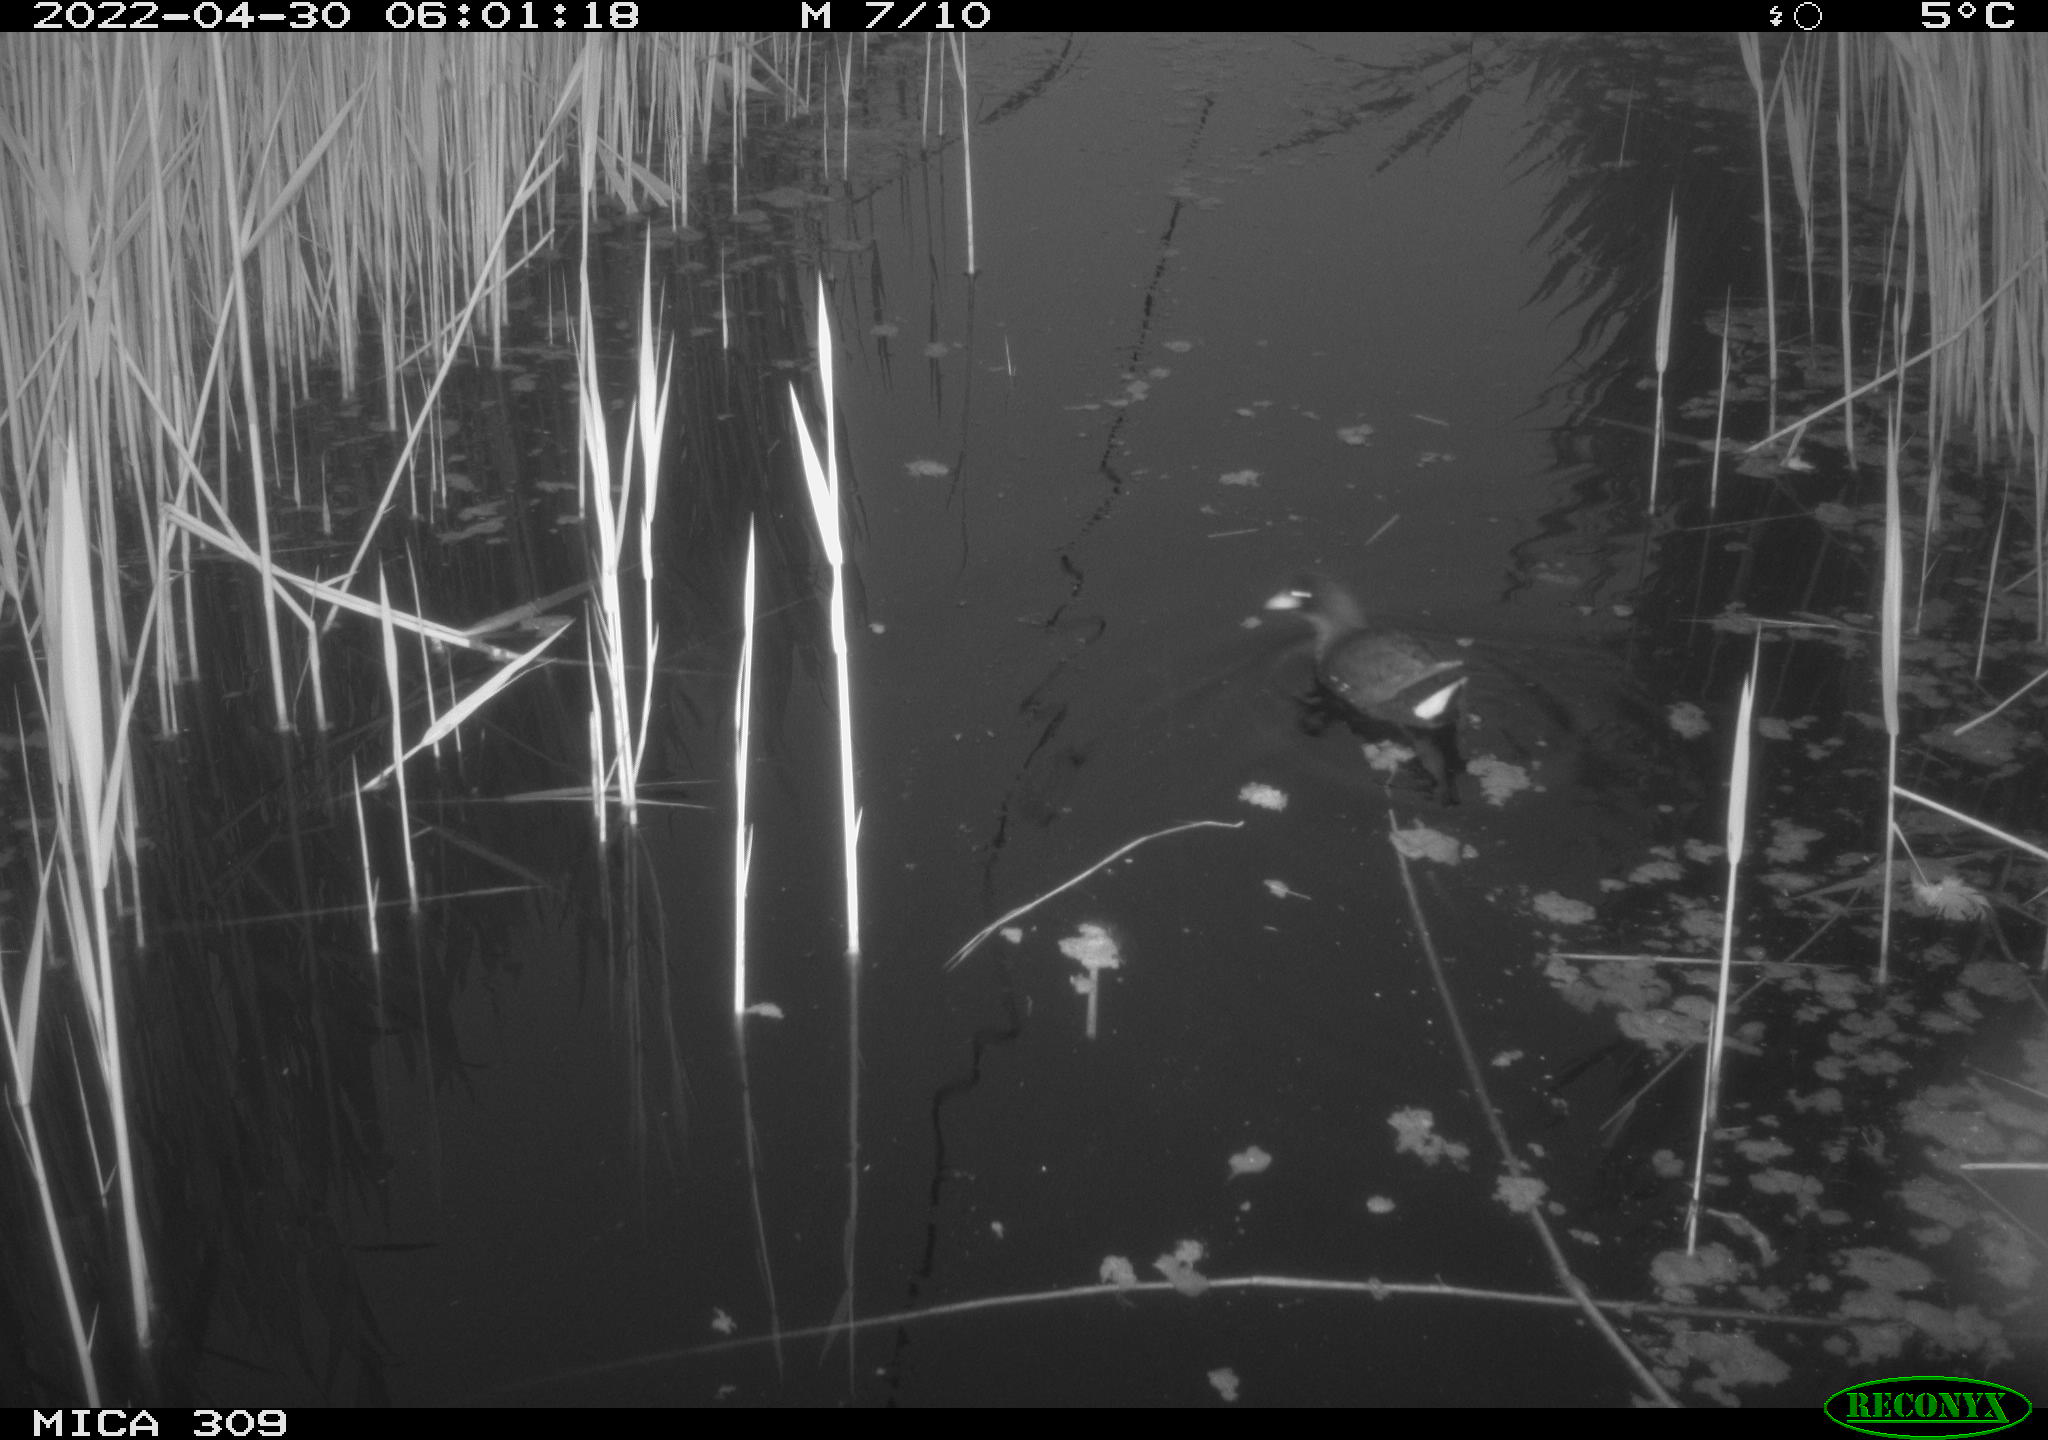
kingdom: Animalia
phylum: Chordata
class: Aves
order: Gruiformes
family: Rallidae
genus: Gallinula
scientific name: Gallinula chloropus
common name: Common moorhen
